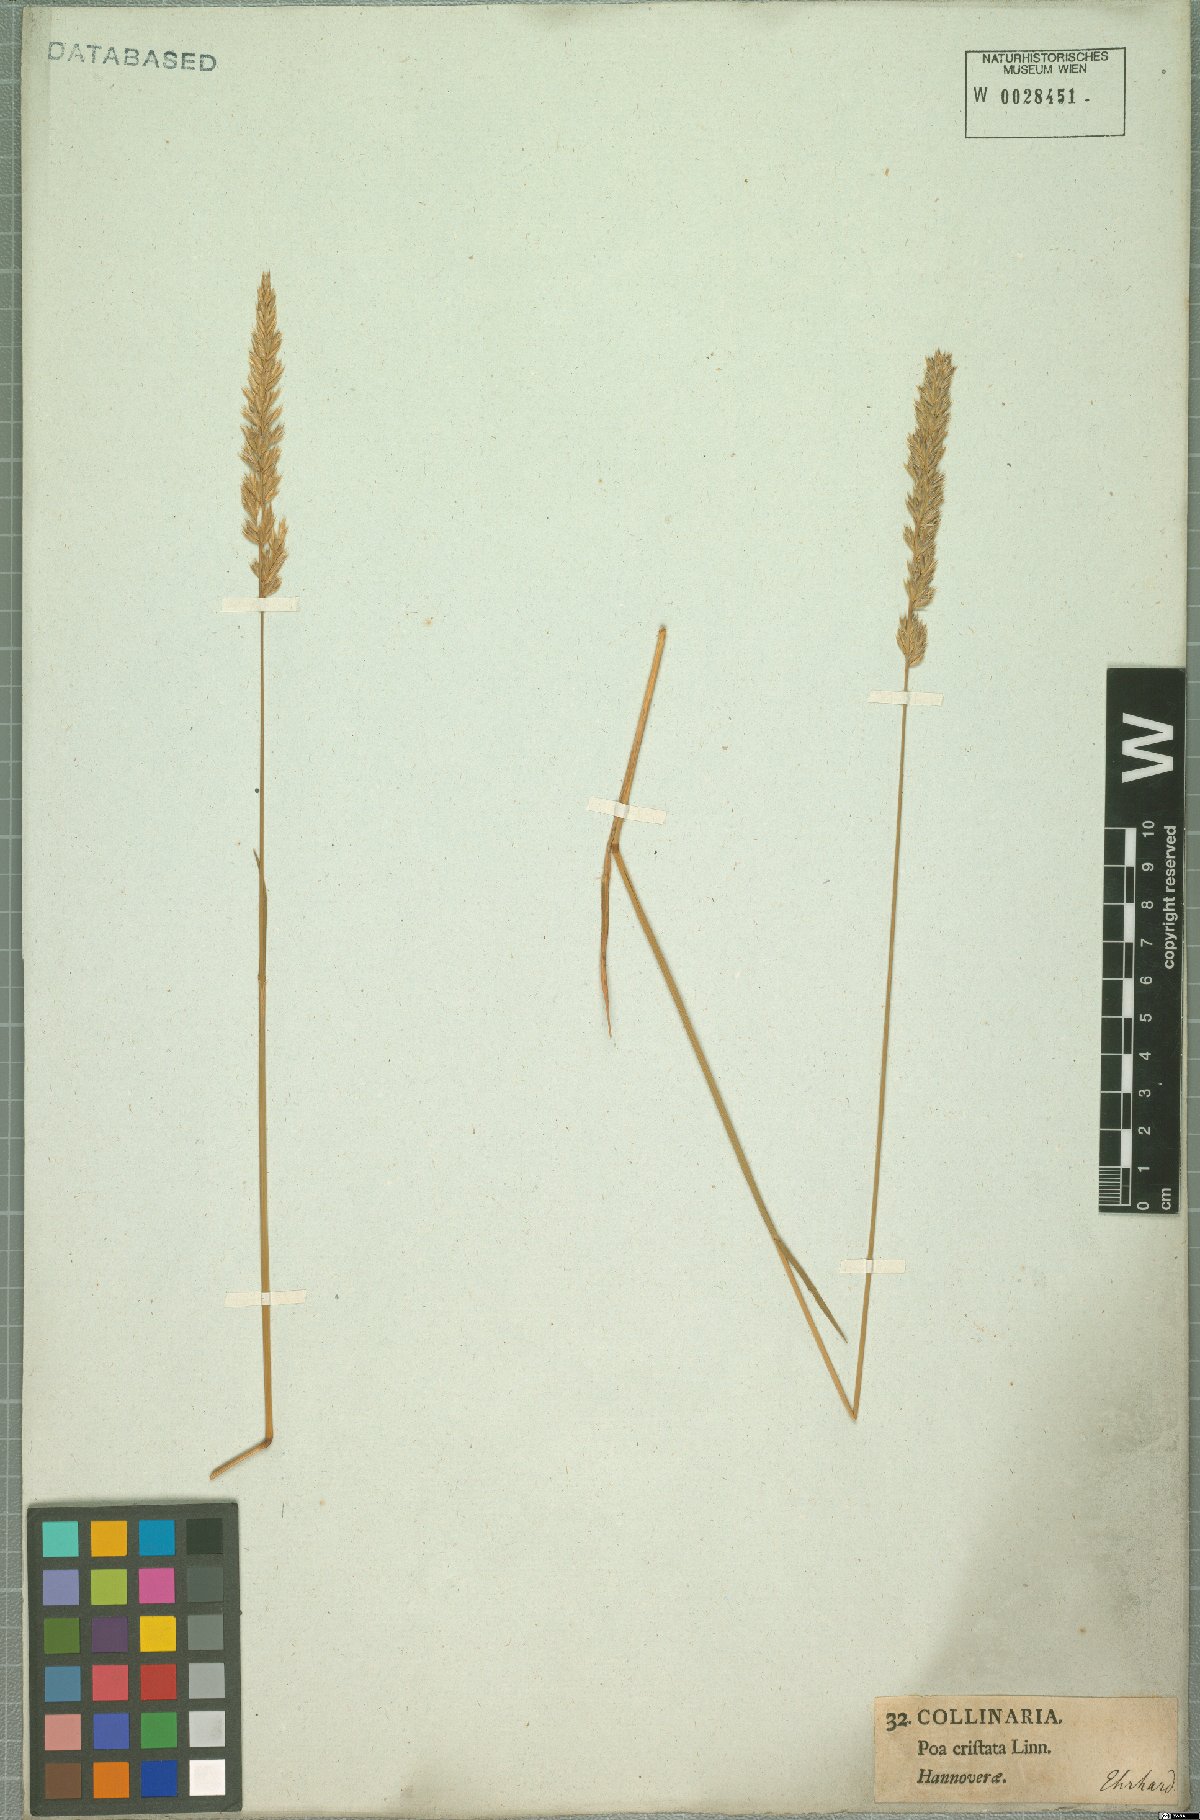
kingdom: Plantae
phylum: Tracheophyta
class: Liliopsida
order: Poales
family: Poaceae
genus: Koeleria
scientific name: Koeleria pyramidata
